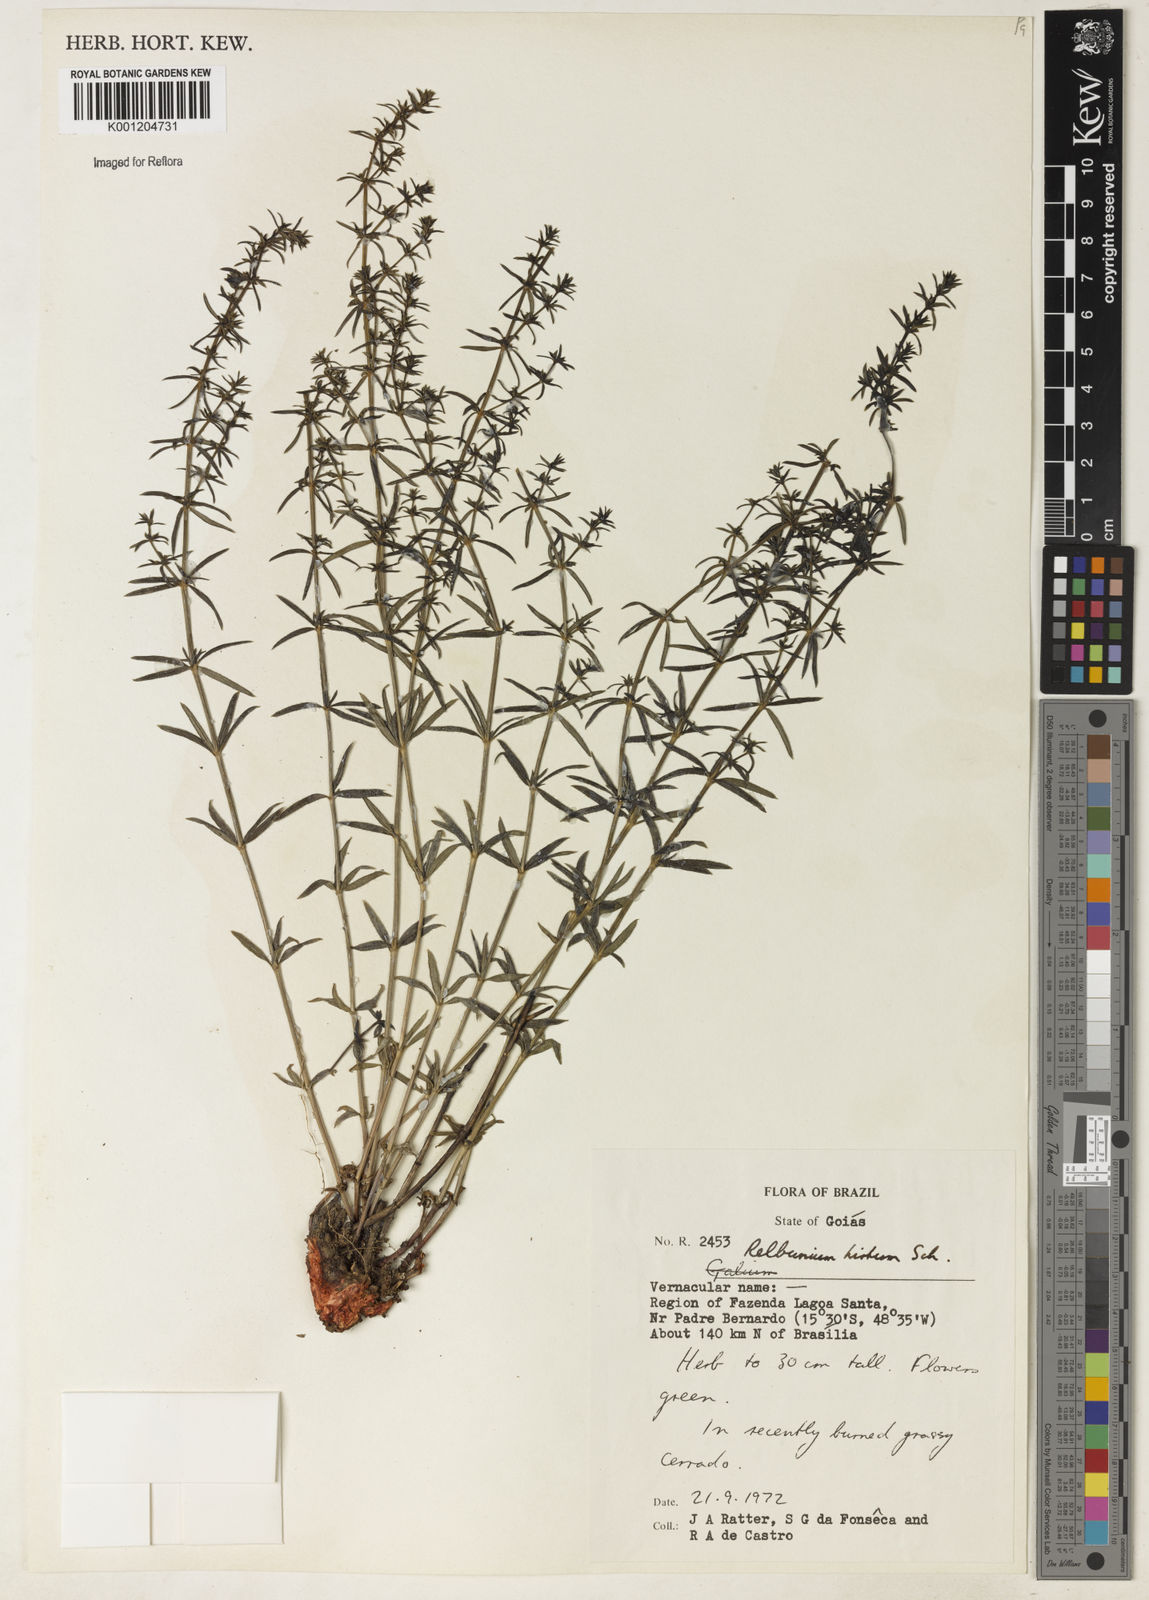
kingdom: Plantae
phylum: Tracheophyta
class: Magnoliopsida
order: Gentianales
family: Rubiaceae
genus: Galium
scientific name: Galium hirtum
